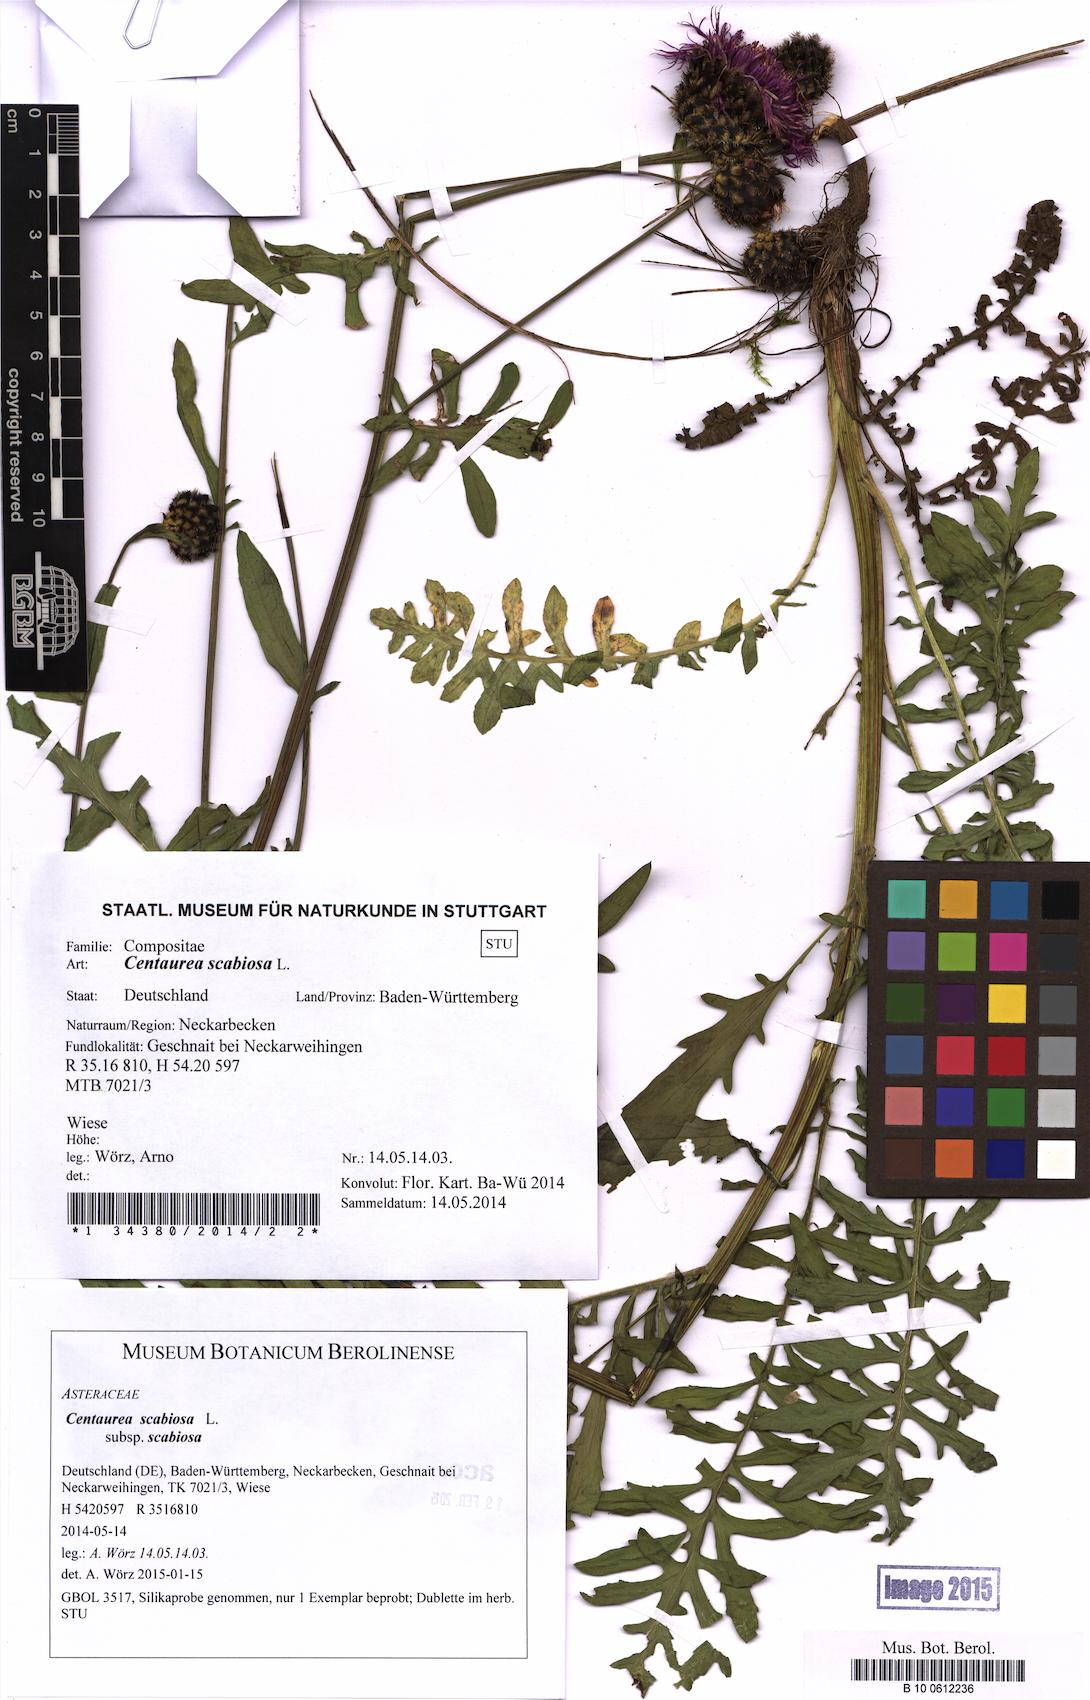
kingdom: Plantae
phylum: Tracheophyta
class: Magnoliopsida
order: Asterales
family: Asteraceae
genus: Centaurea
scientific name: Centaurea scabiosa
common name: Greater knapweed
